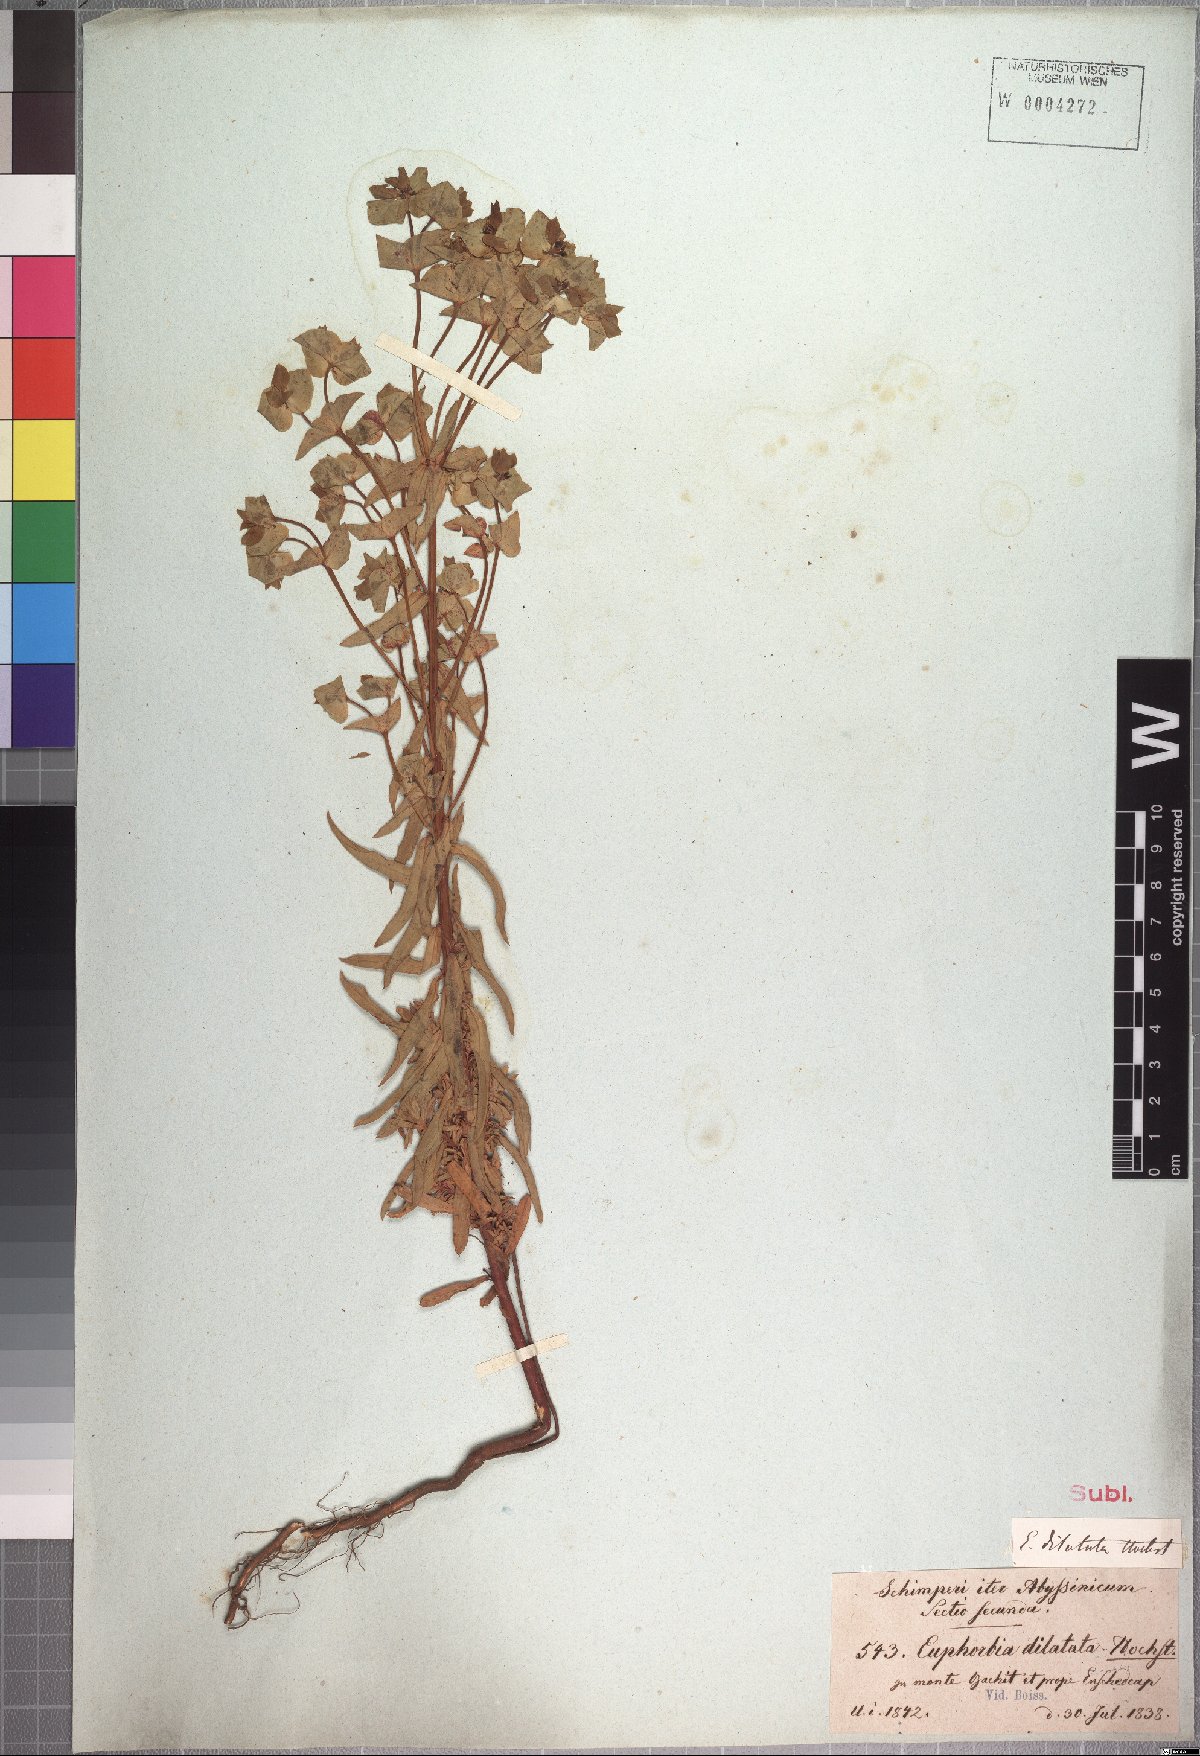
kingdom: Plantae
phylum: Tracheophyta
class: Magnoliopsida
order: Malpighiales
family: Euphorbiaceae
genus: Euphorbia
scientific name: Euphorbia schimperiana
